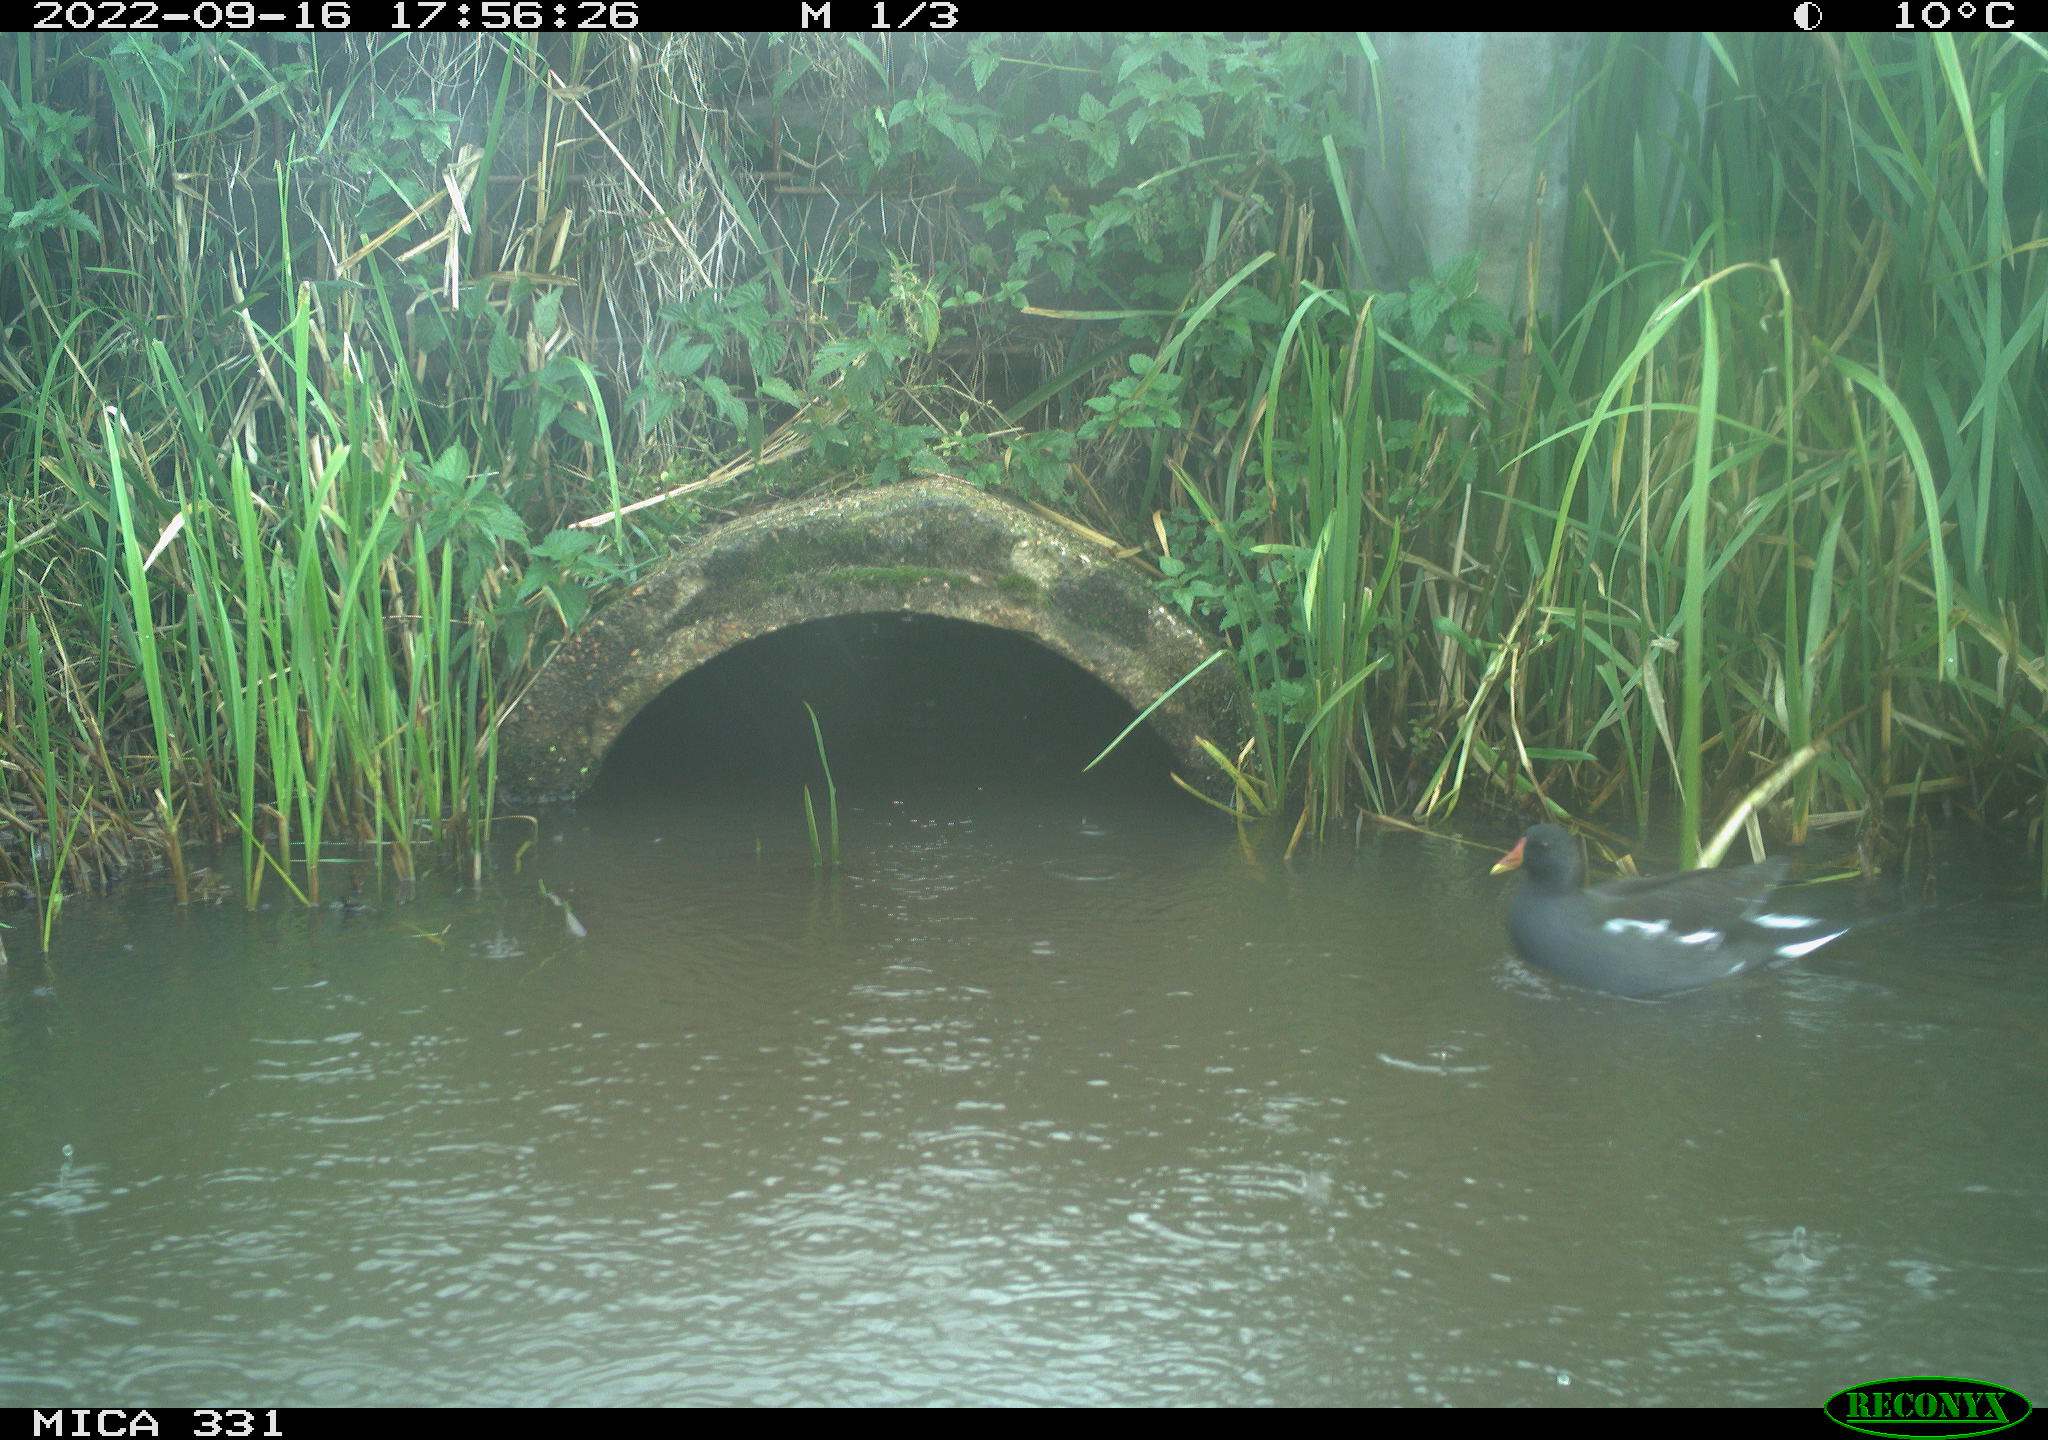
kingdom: Animalia
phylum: Chordata
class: Aves
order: Gruiformes
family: Rallidae
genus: Gallinula
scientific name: Gallinula chloropus
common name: Common moorhen
